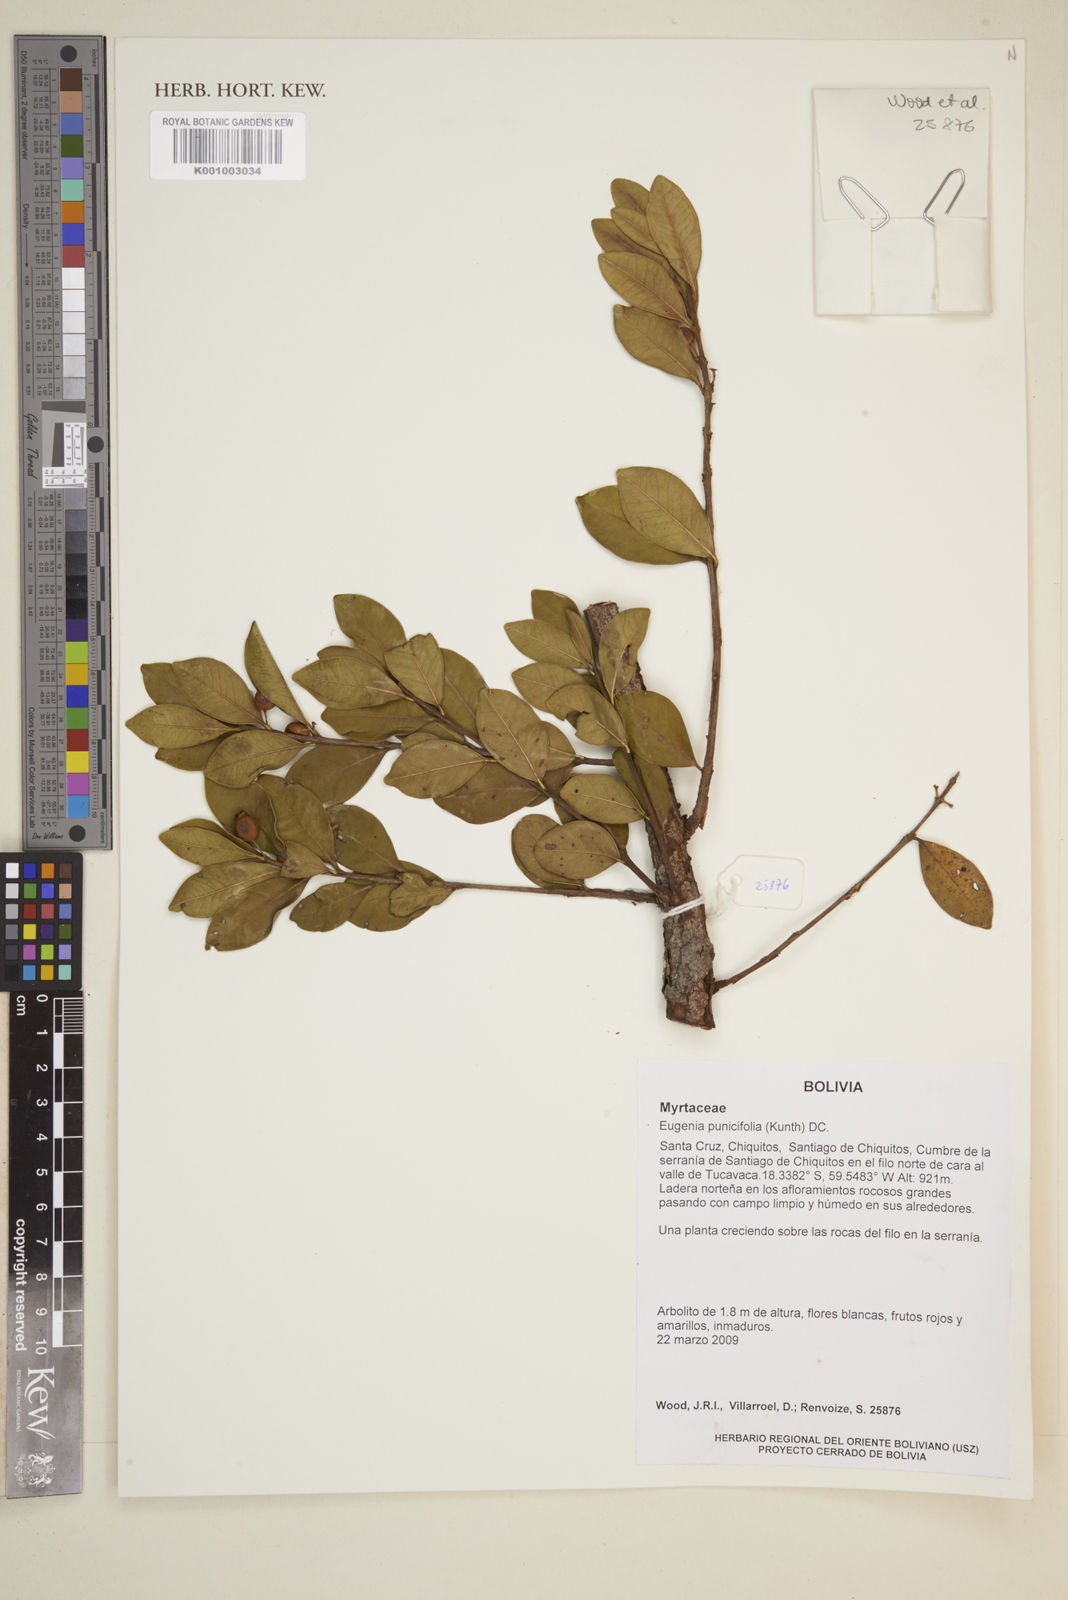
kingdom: Plantae
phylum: Tracheophyta
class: Magnoliopsida
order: Myrtales
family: Myrtaceae
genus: Eugenia
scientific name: Eugenia punicifolia
